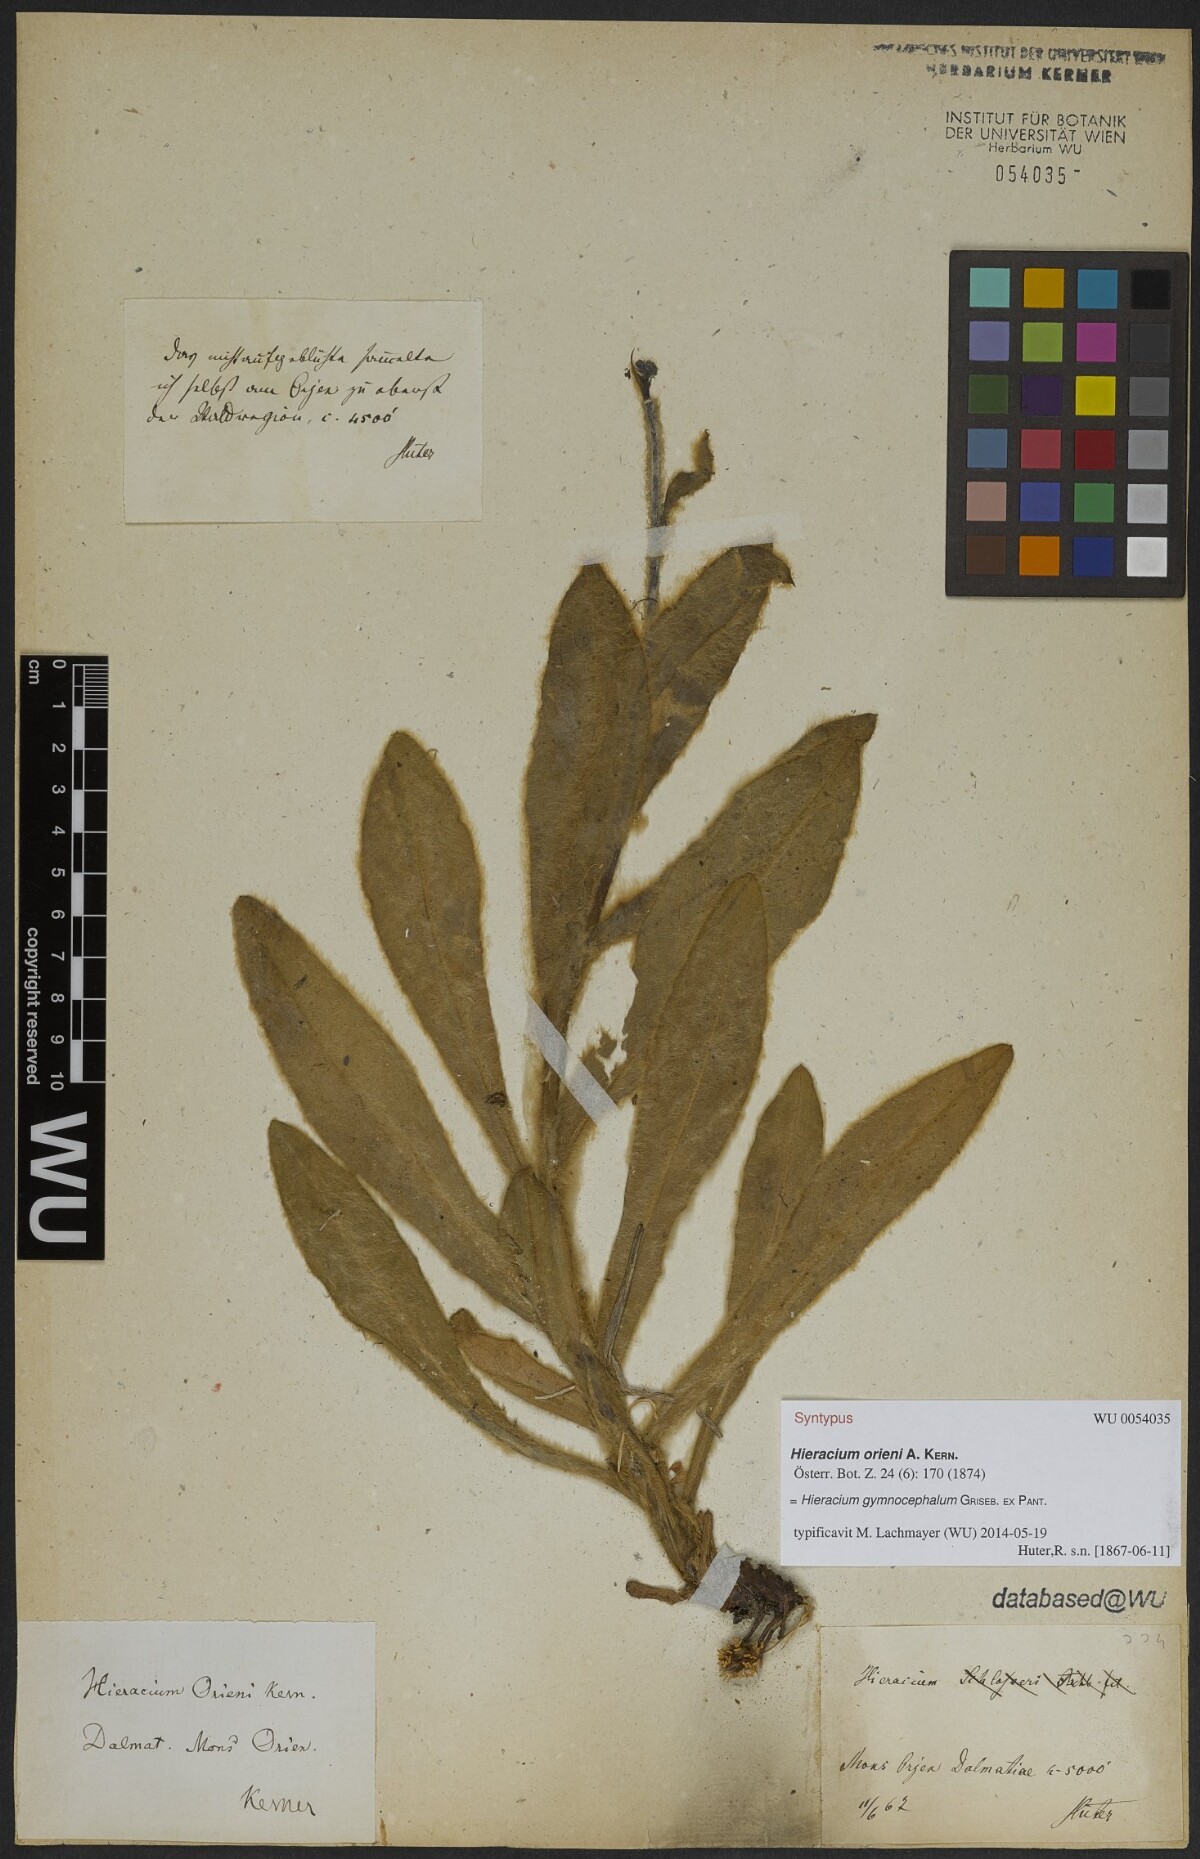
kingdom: Plantae
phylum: Tracheophyta
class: Magnoliopsida
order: Asterales
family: Asteraceae
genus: Hieracium
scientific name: Hieracium gymnocephalum
